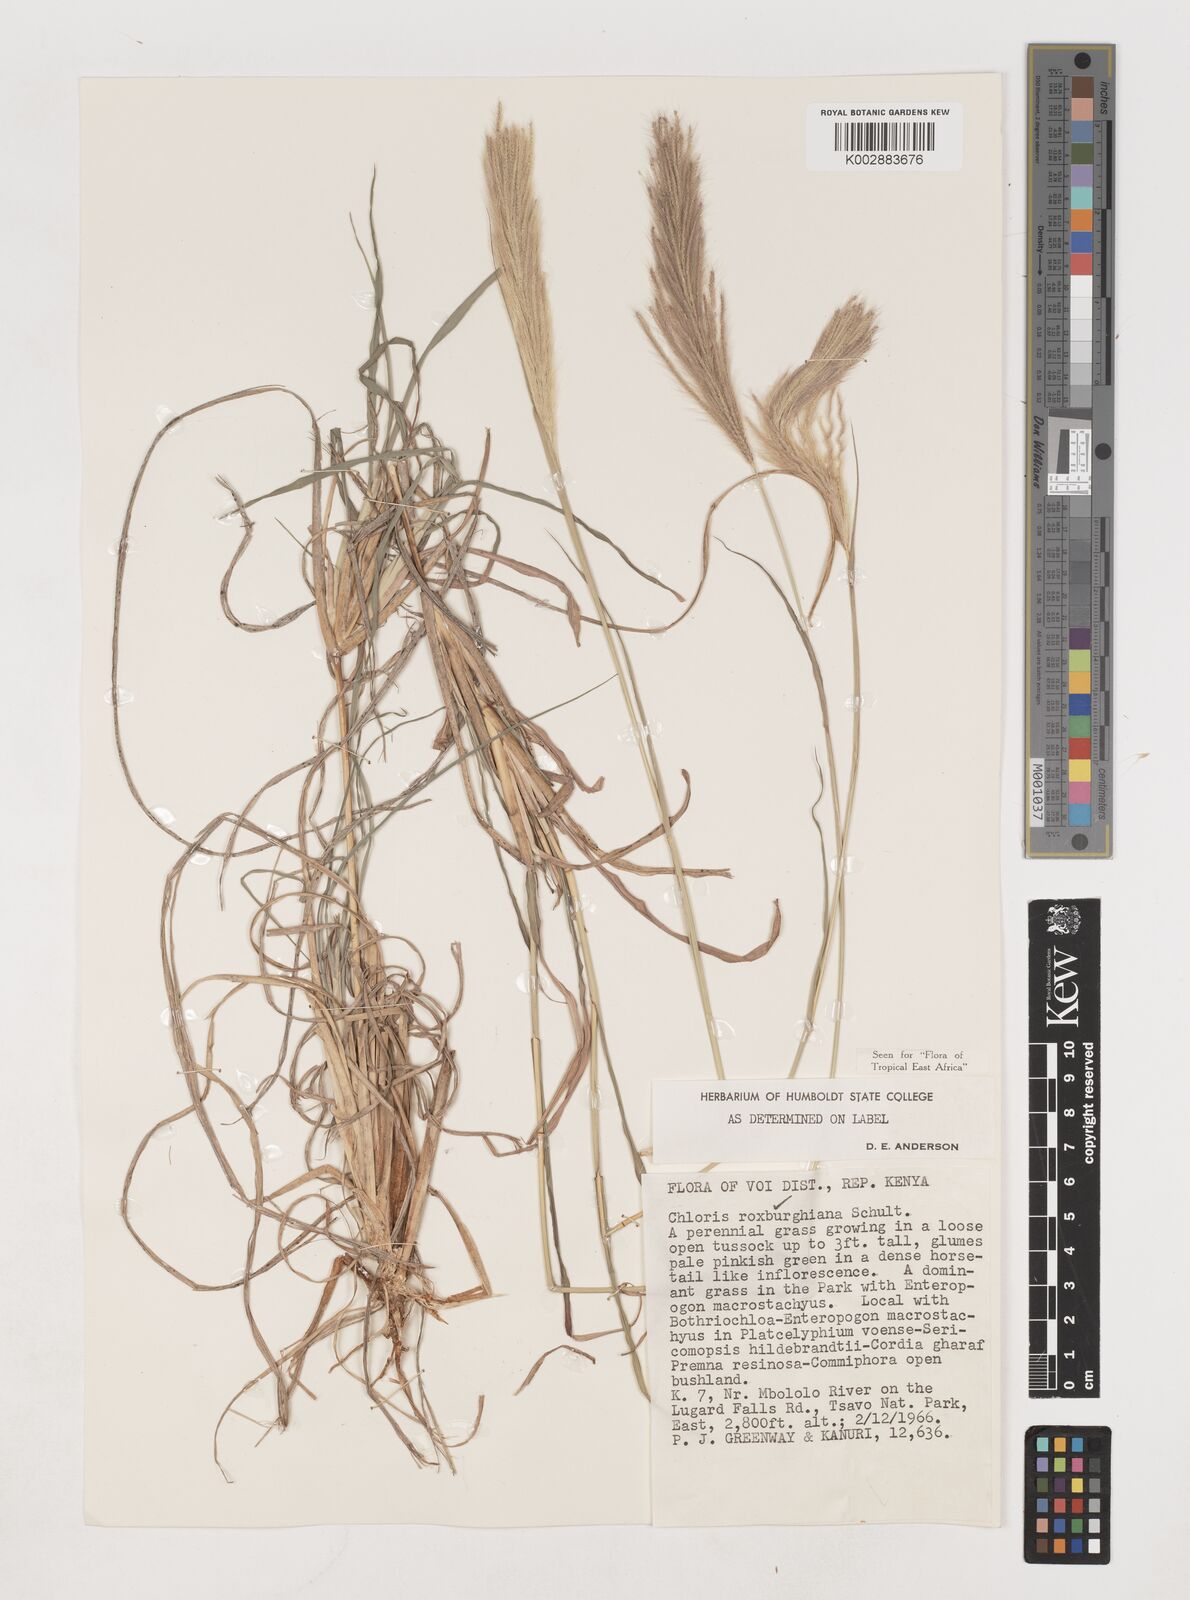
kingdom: Plantae
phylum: Tracheophyta
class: Liliopsida
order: Poales
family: Poaceae
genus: Tetrapogon
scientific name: Tetrapogon roxburghiana
